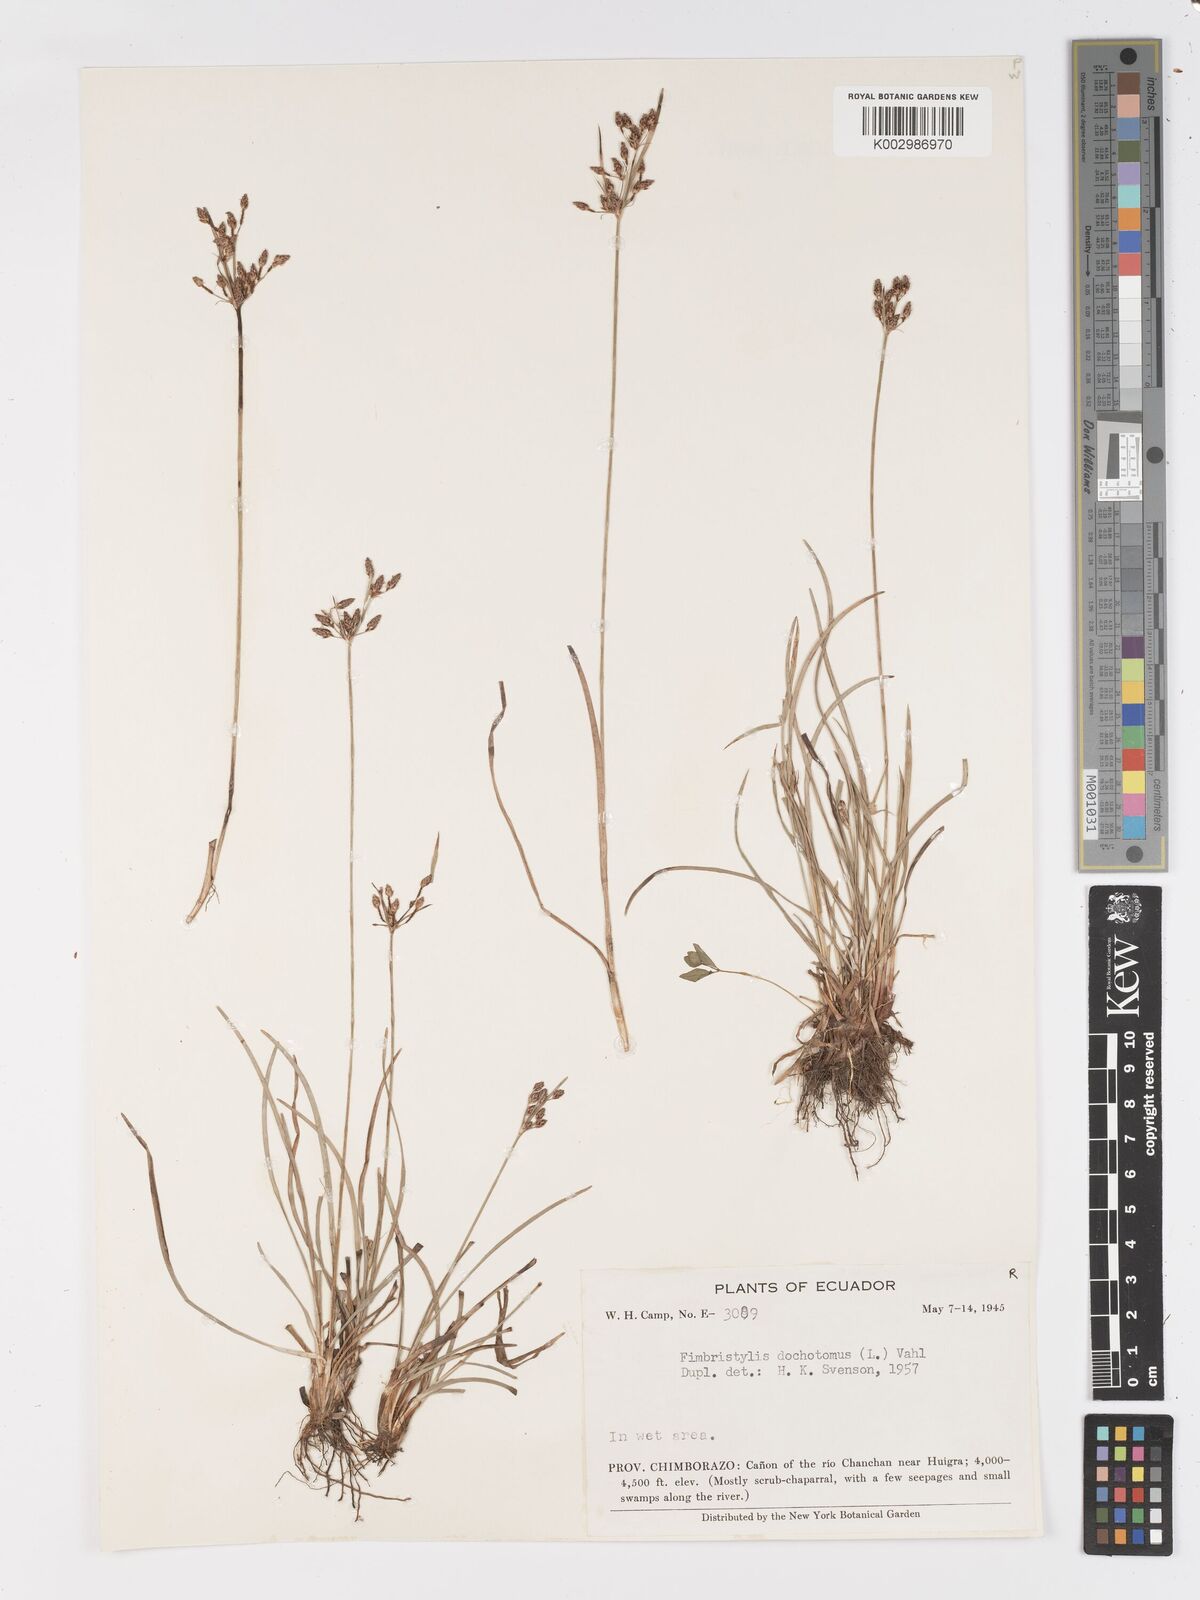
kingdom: Plantae
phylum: Tracheophyta
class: Liliopsida
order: Poales
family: Cyperaceae
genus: Fimbristylis
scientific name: Fimbristylis dichotoma
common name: Forked fimbry
